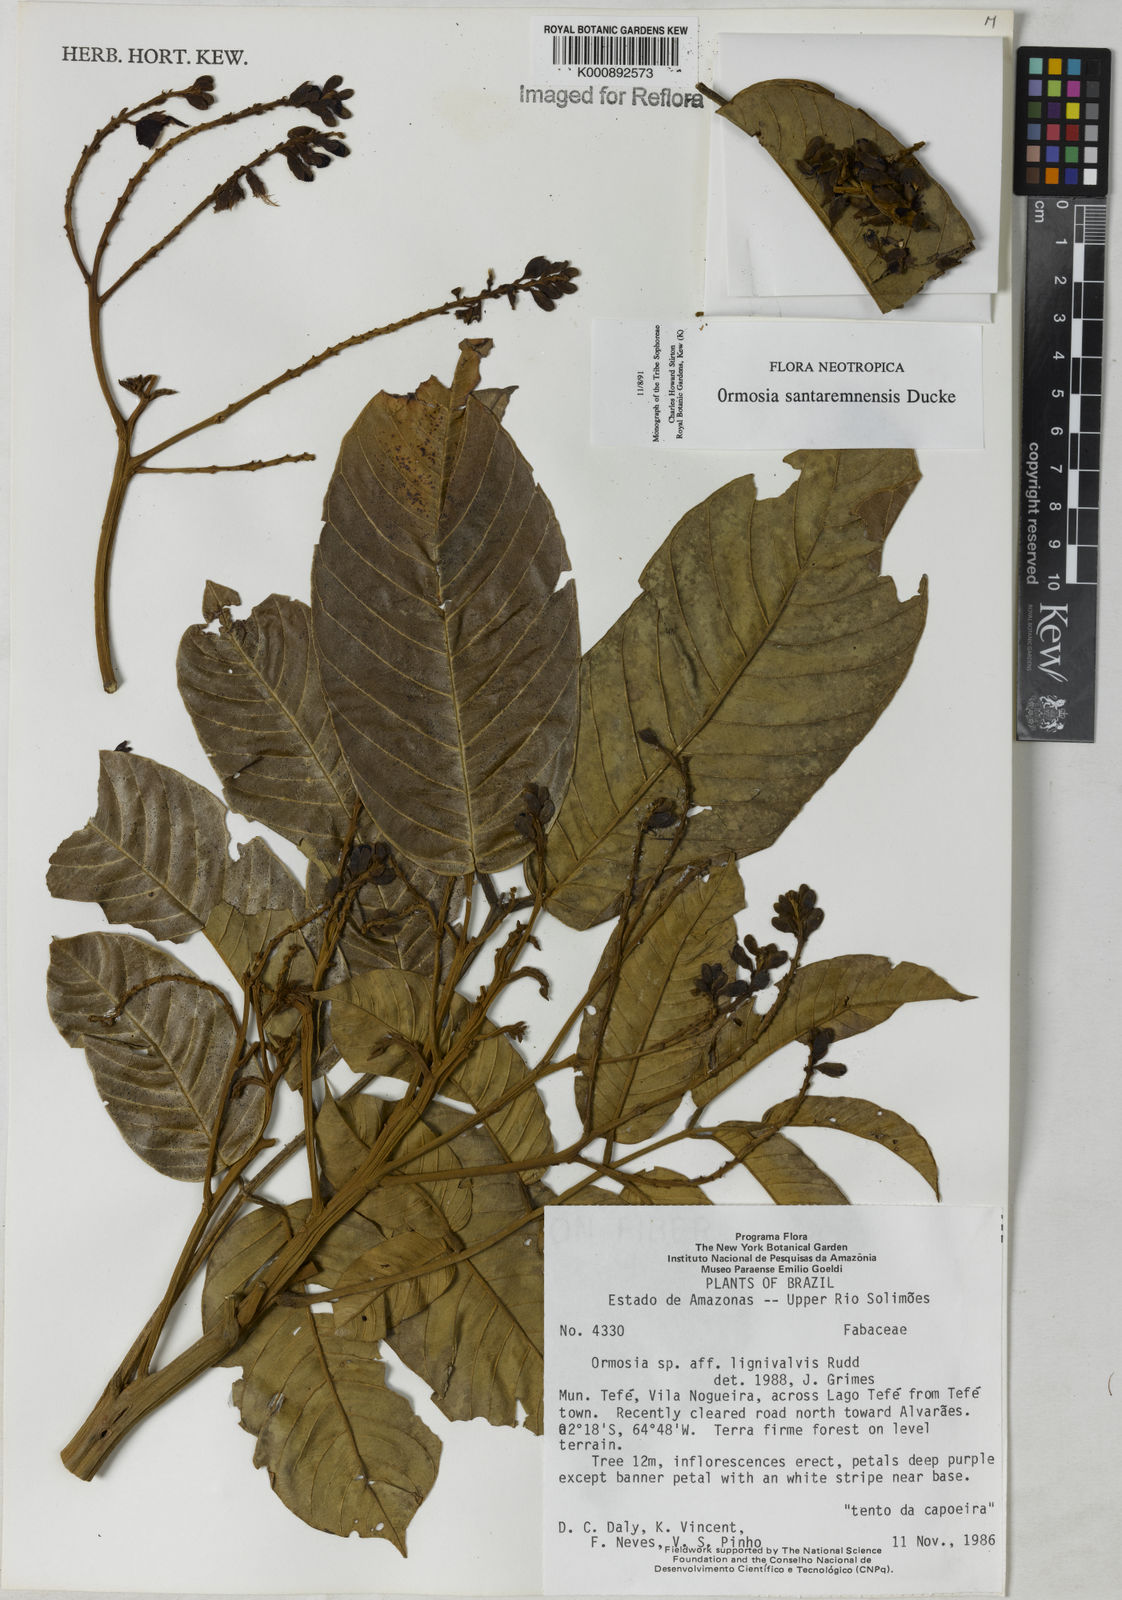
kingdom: Plantae
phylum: Tracheophyta
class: Magnoliopsida
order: Fabales
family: Fabaceae
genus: Ormosia
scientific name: Ormosia santaremnensis
